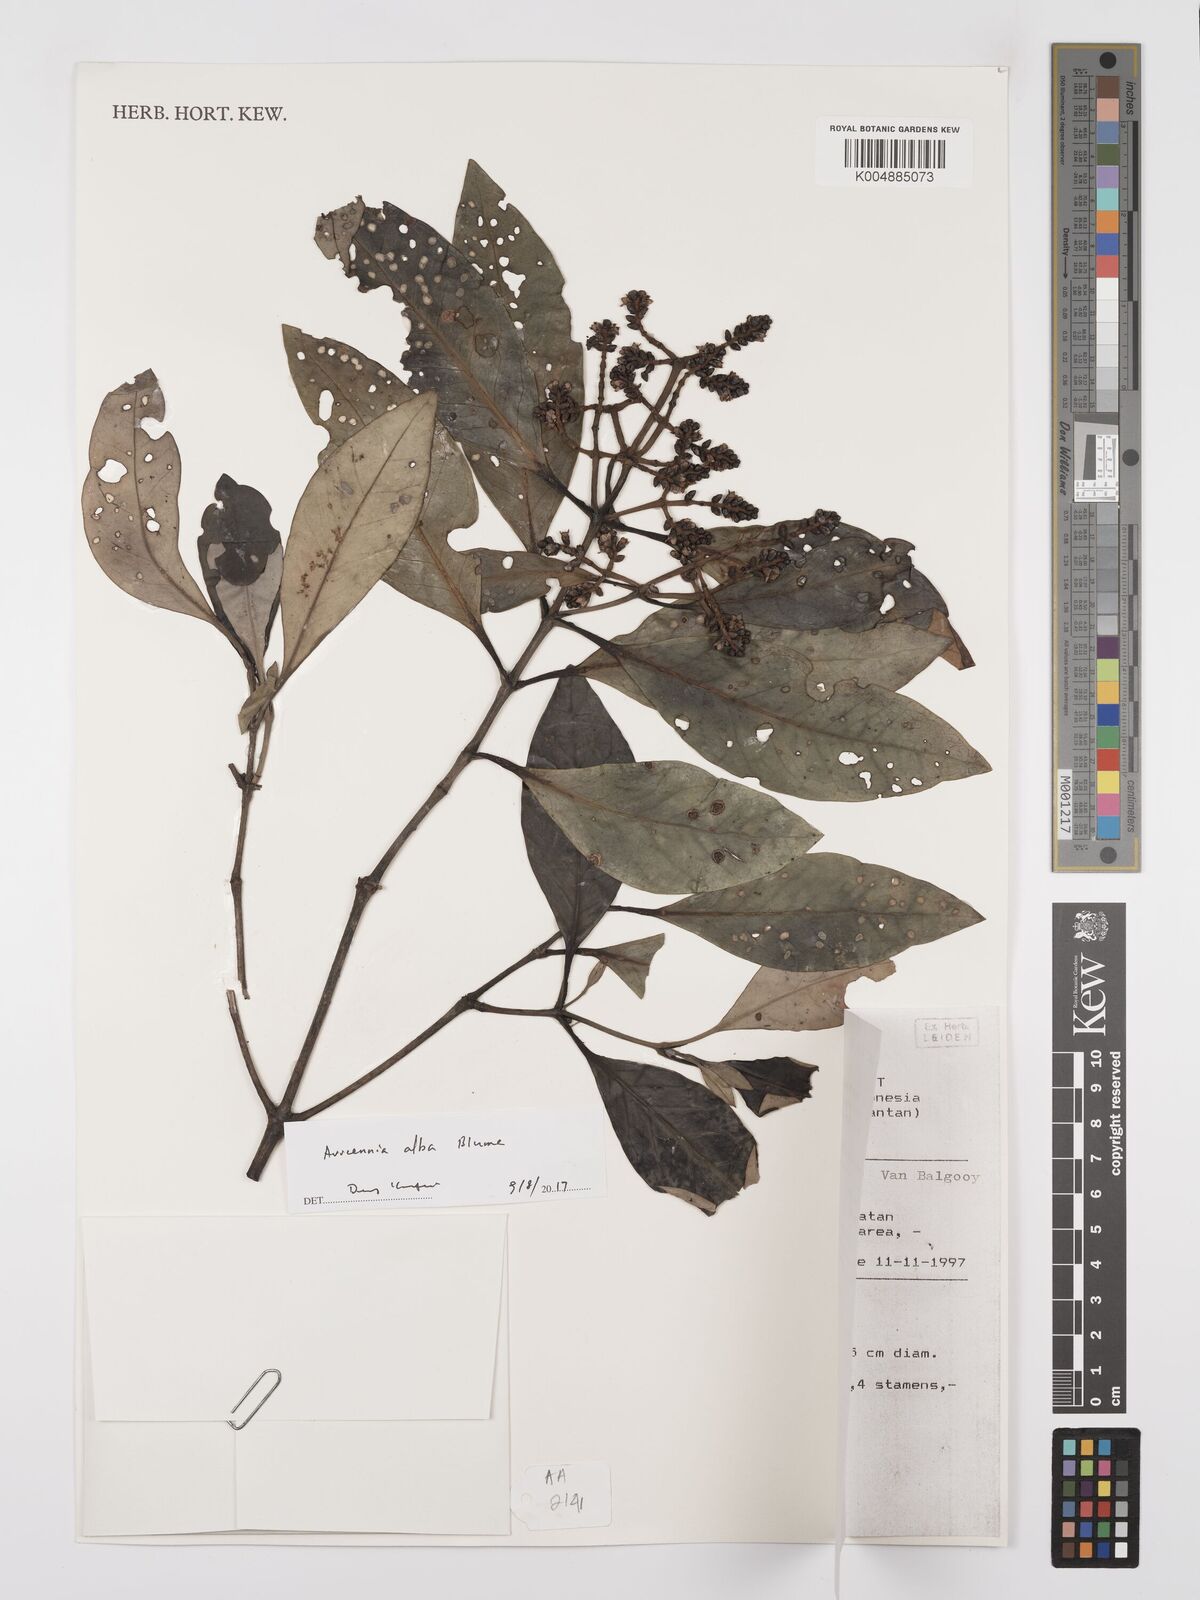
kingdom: Plantae
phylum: Tracheophyta
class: Magnoliopsida
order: Lamiales
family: Acanthaceae
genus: Avicennia
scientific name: Avicennia alba
